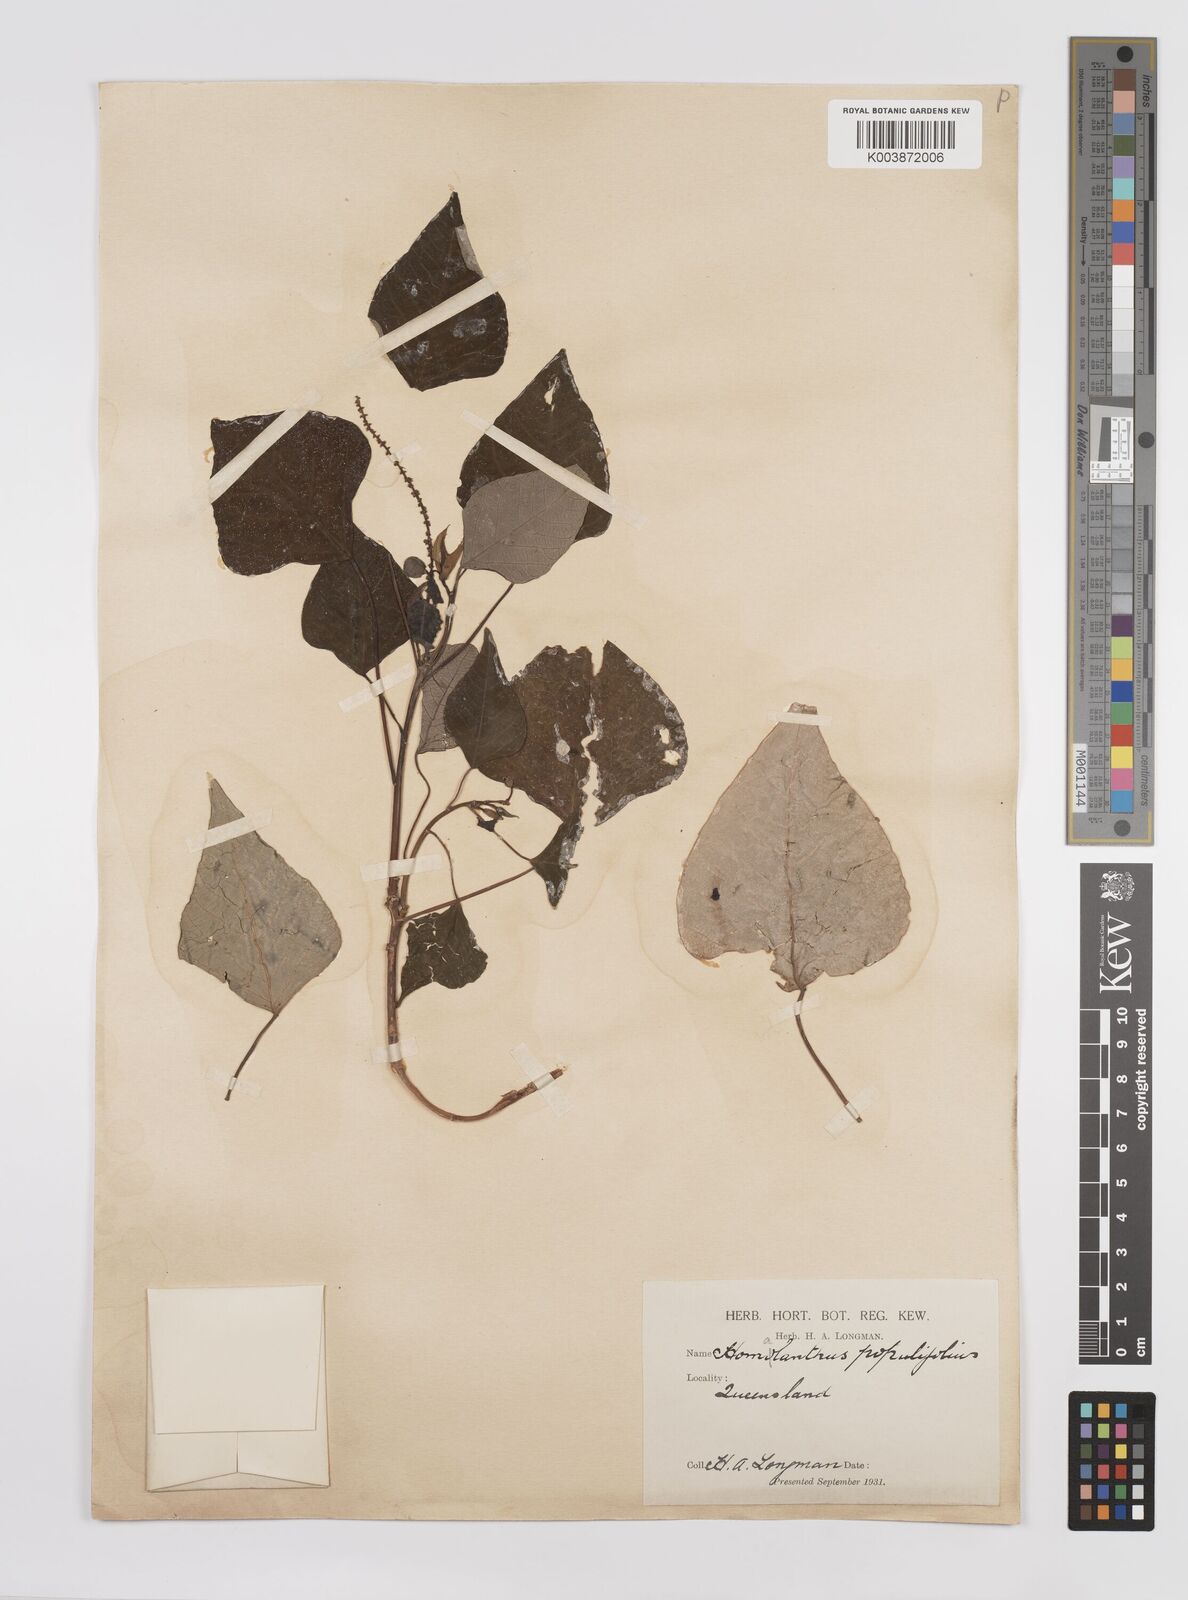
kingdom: Plantae
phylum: Tracheophyta
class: Magnoliopsida
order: Malpighiales
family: Euphorbiaceae
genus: Homalanthus
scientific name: Homalanthus populifolius
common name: Queensland poplar
